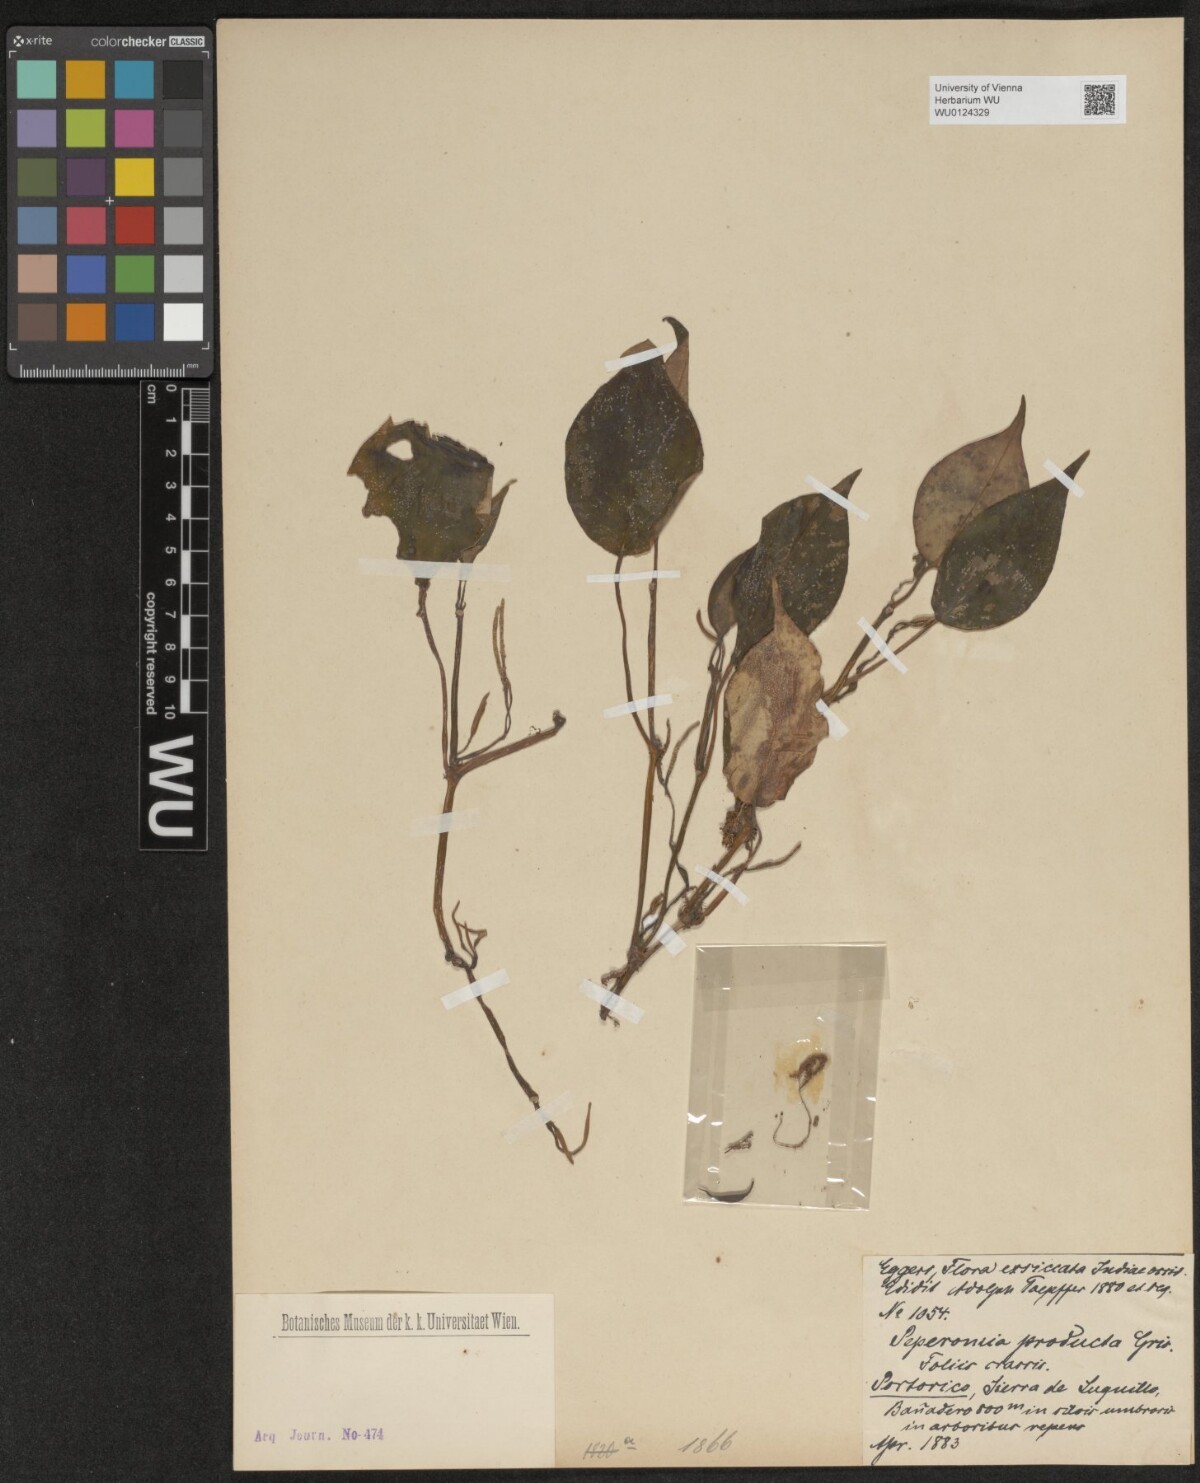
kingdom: Plantae
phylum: Tracheophyta
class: Magnoliopsida
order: Piperales
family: Piperaceae
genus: Peperomia
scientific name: Peperomia distachyos
